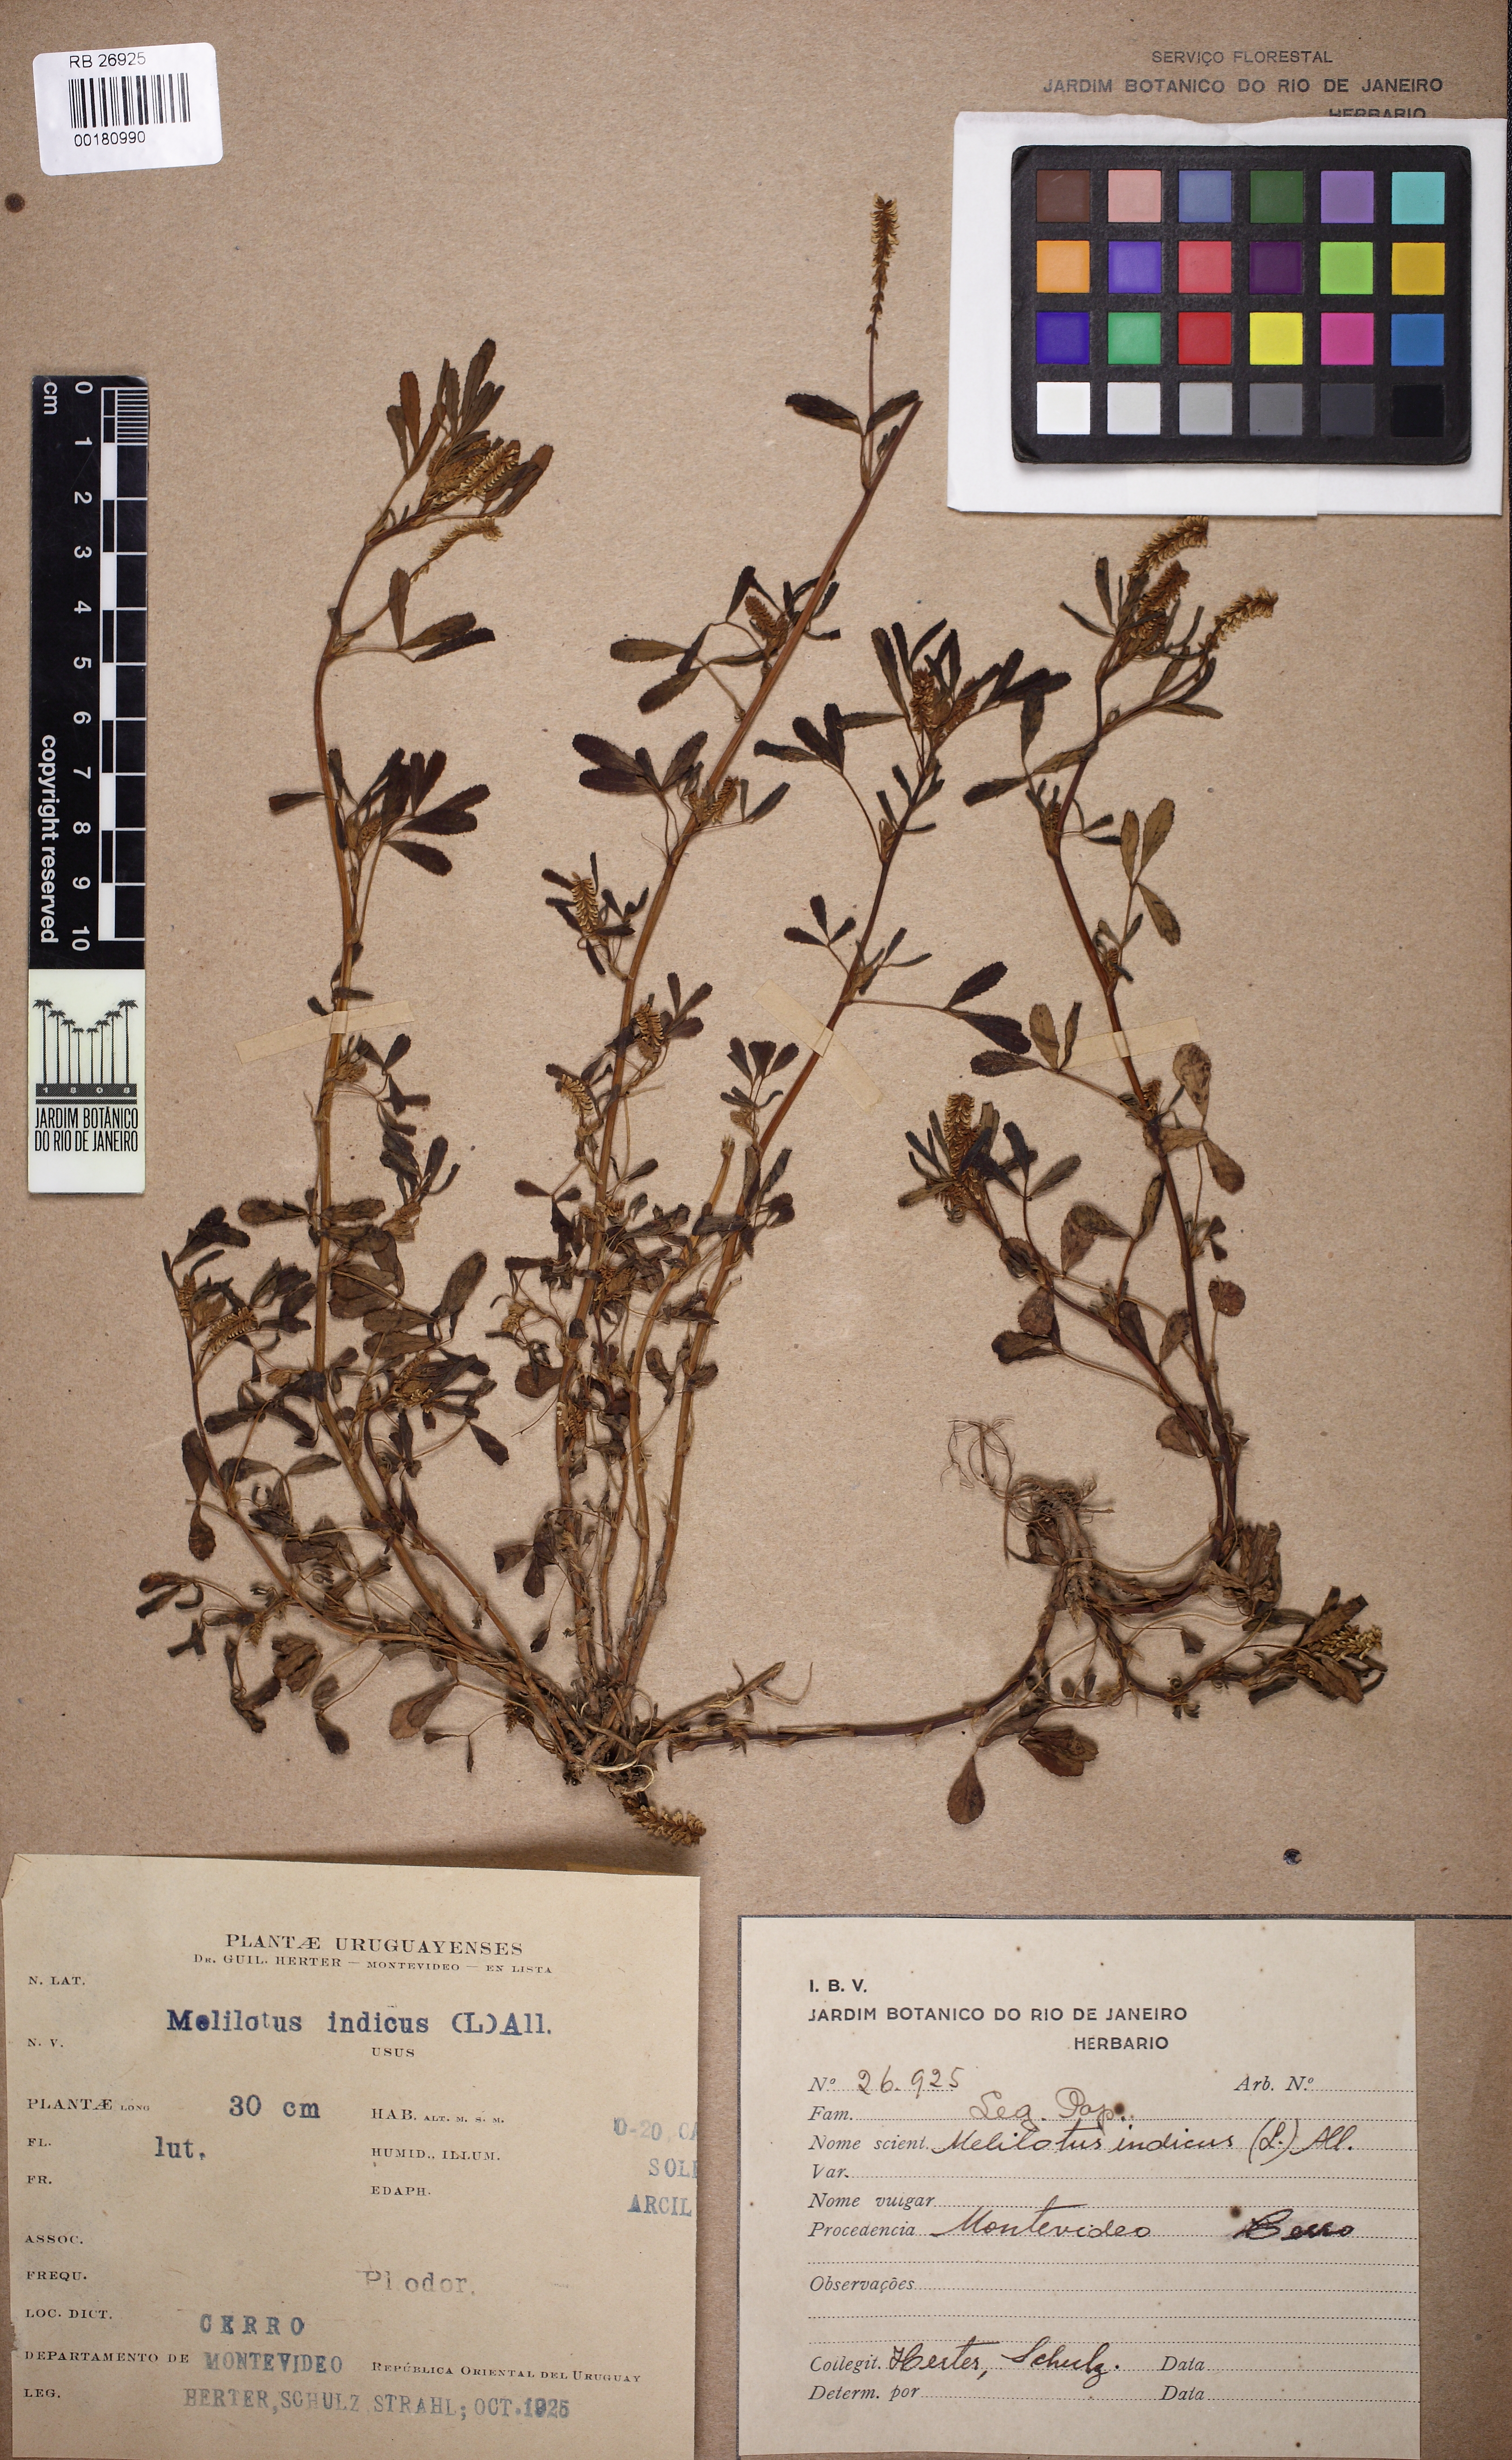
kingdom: Plantae
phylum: Tracheophyta
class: Magnoliopsida
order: Fabales
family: Fabaceae
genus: Melilotus
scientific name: Melilotus indicus
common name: Small melilot
